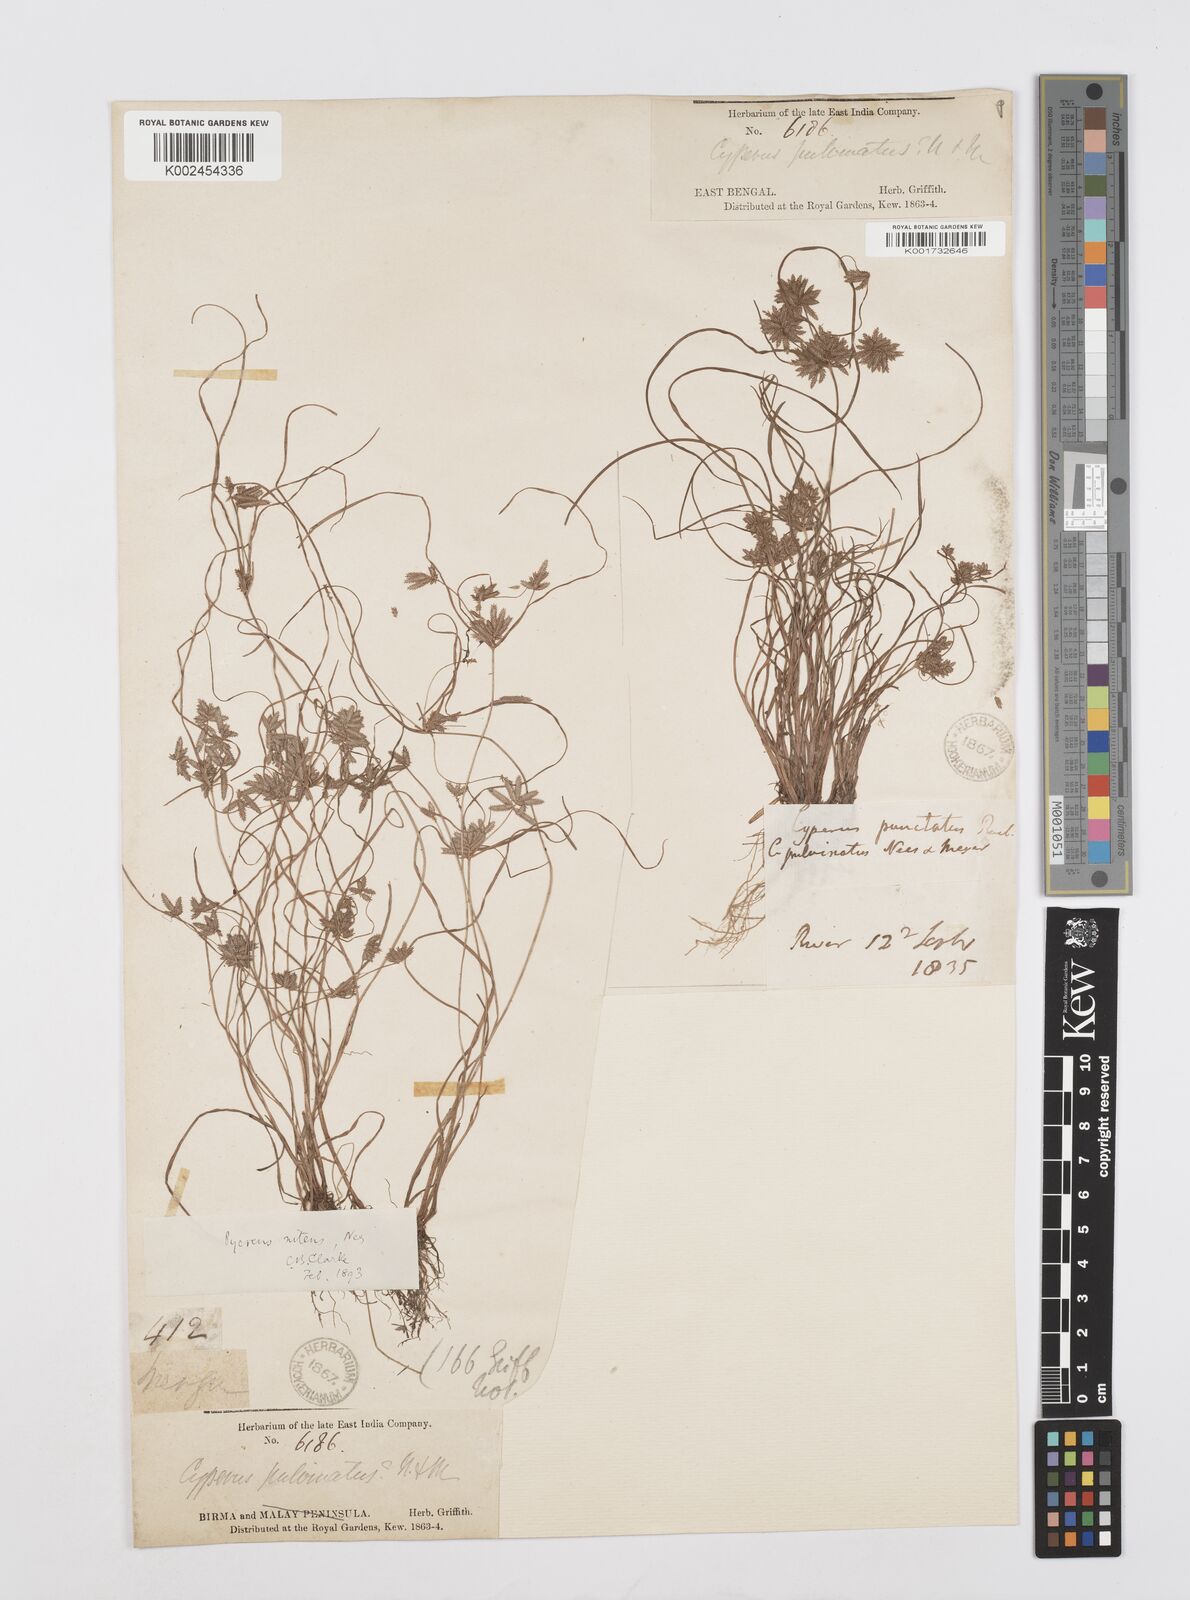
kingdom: Plantae
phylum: Tracheophyta
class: Liliopsida
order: Poales
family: Cyperaceae
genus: Cyperus
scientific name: Cyperus pumilus
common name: Low flatsedge
